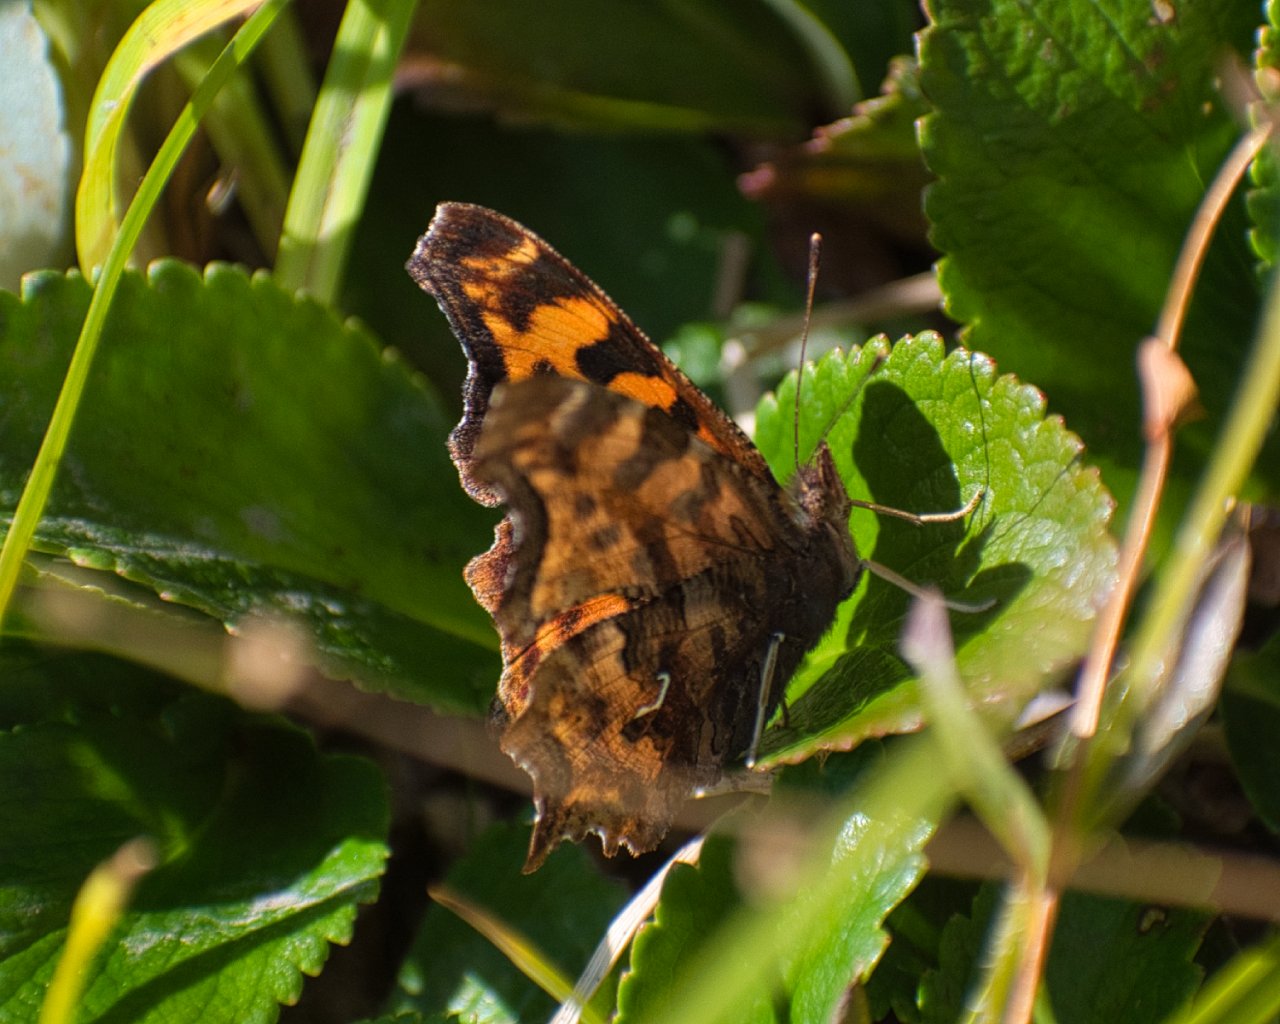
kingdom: Animalia
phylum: Arthropoda
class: Insecta
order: Lepidoptera
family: Nymphalidae
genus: Polygonia
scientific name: Polygonia satyrus
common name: Satyr Comma
